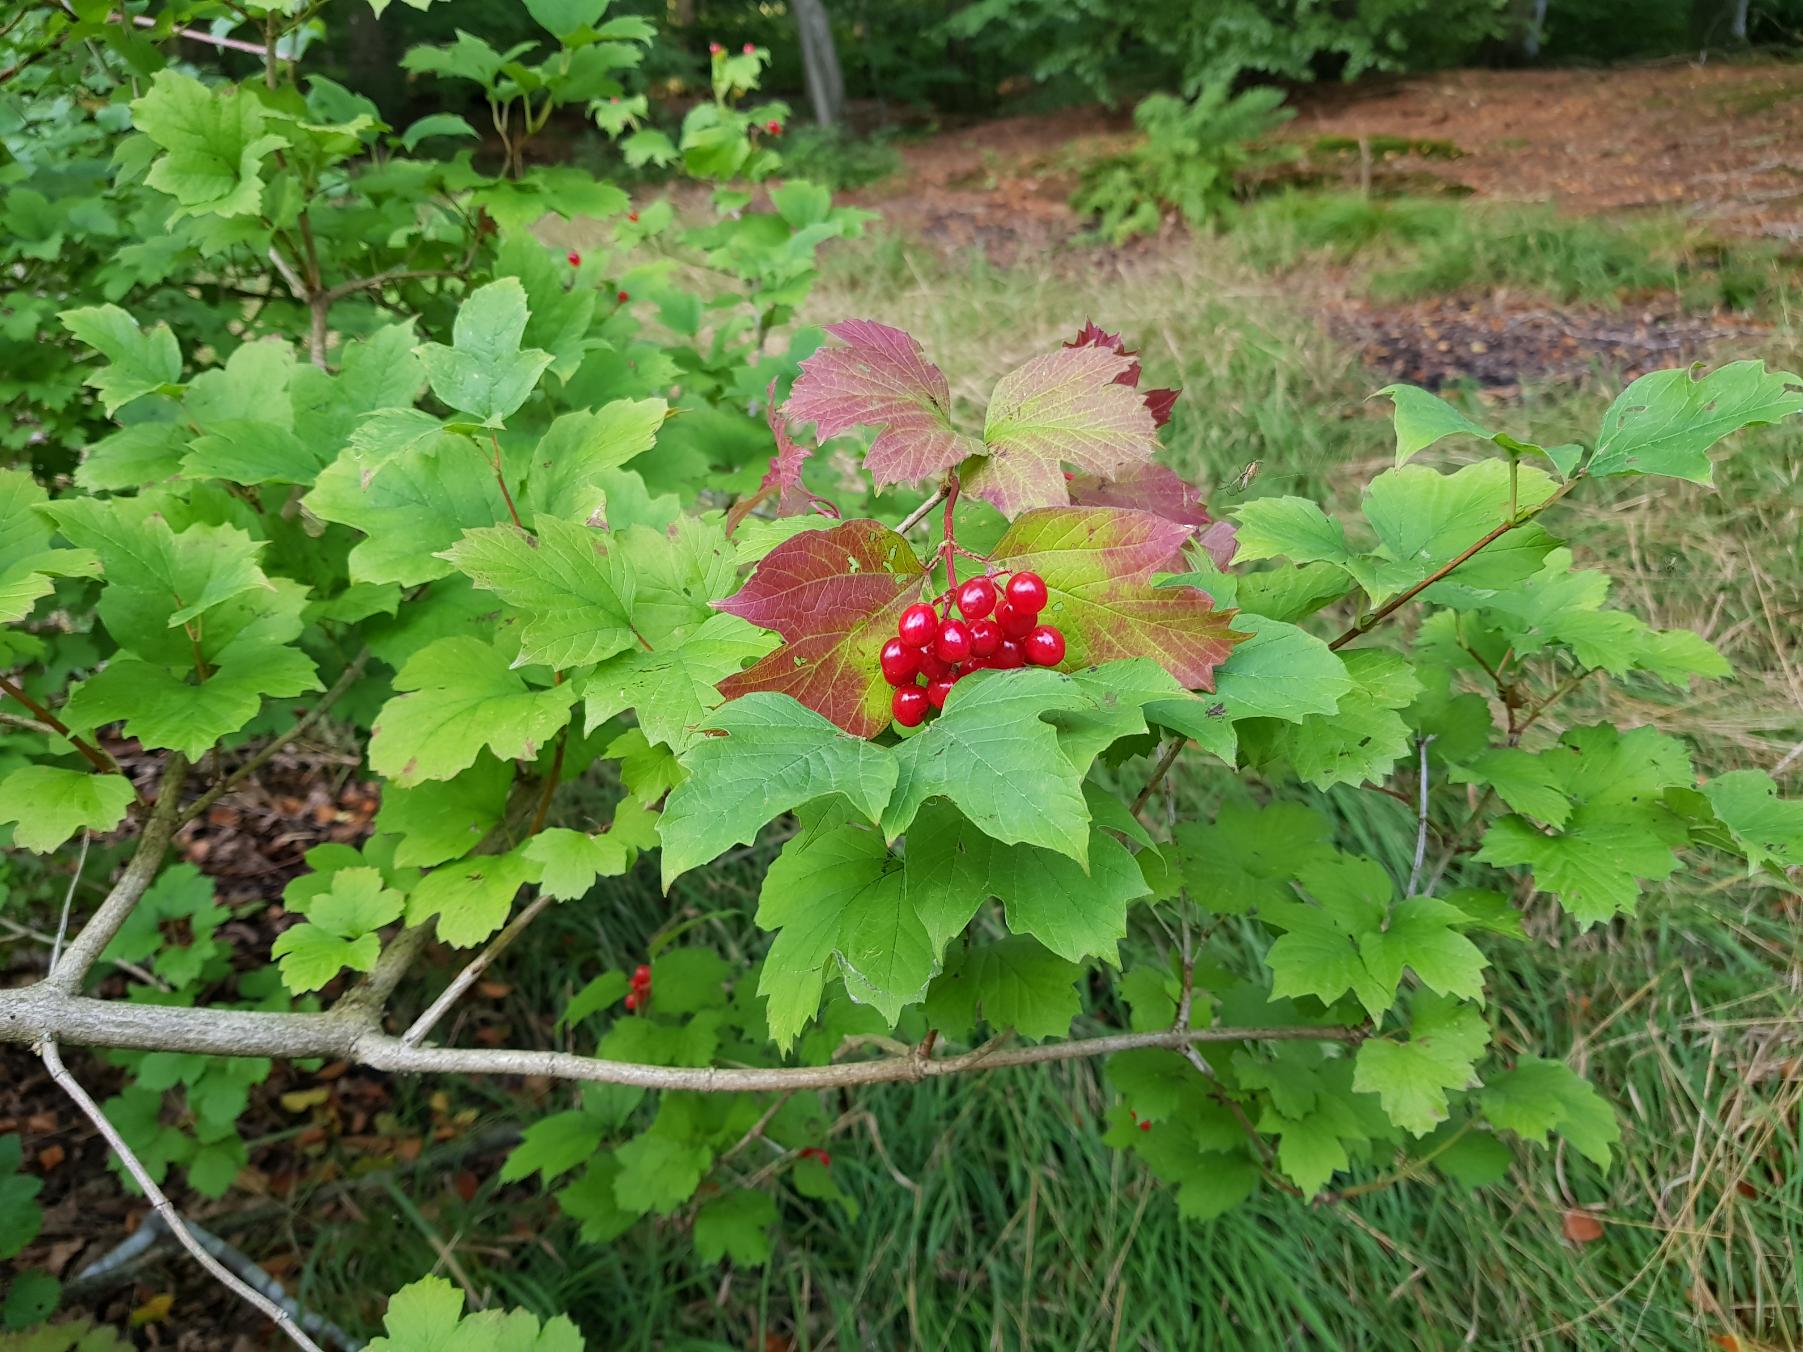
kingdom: Plantae
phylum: Tracheophyta
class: Magnoliopsida
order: Dipsacales
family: Viburnaceae
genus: Viburnum
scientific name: Viburnum opulus
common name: Kvalkved
